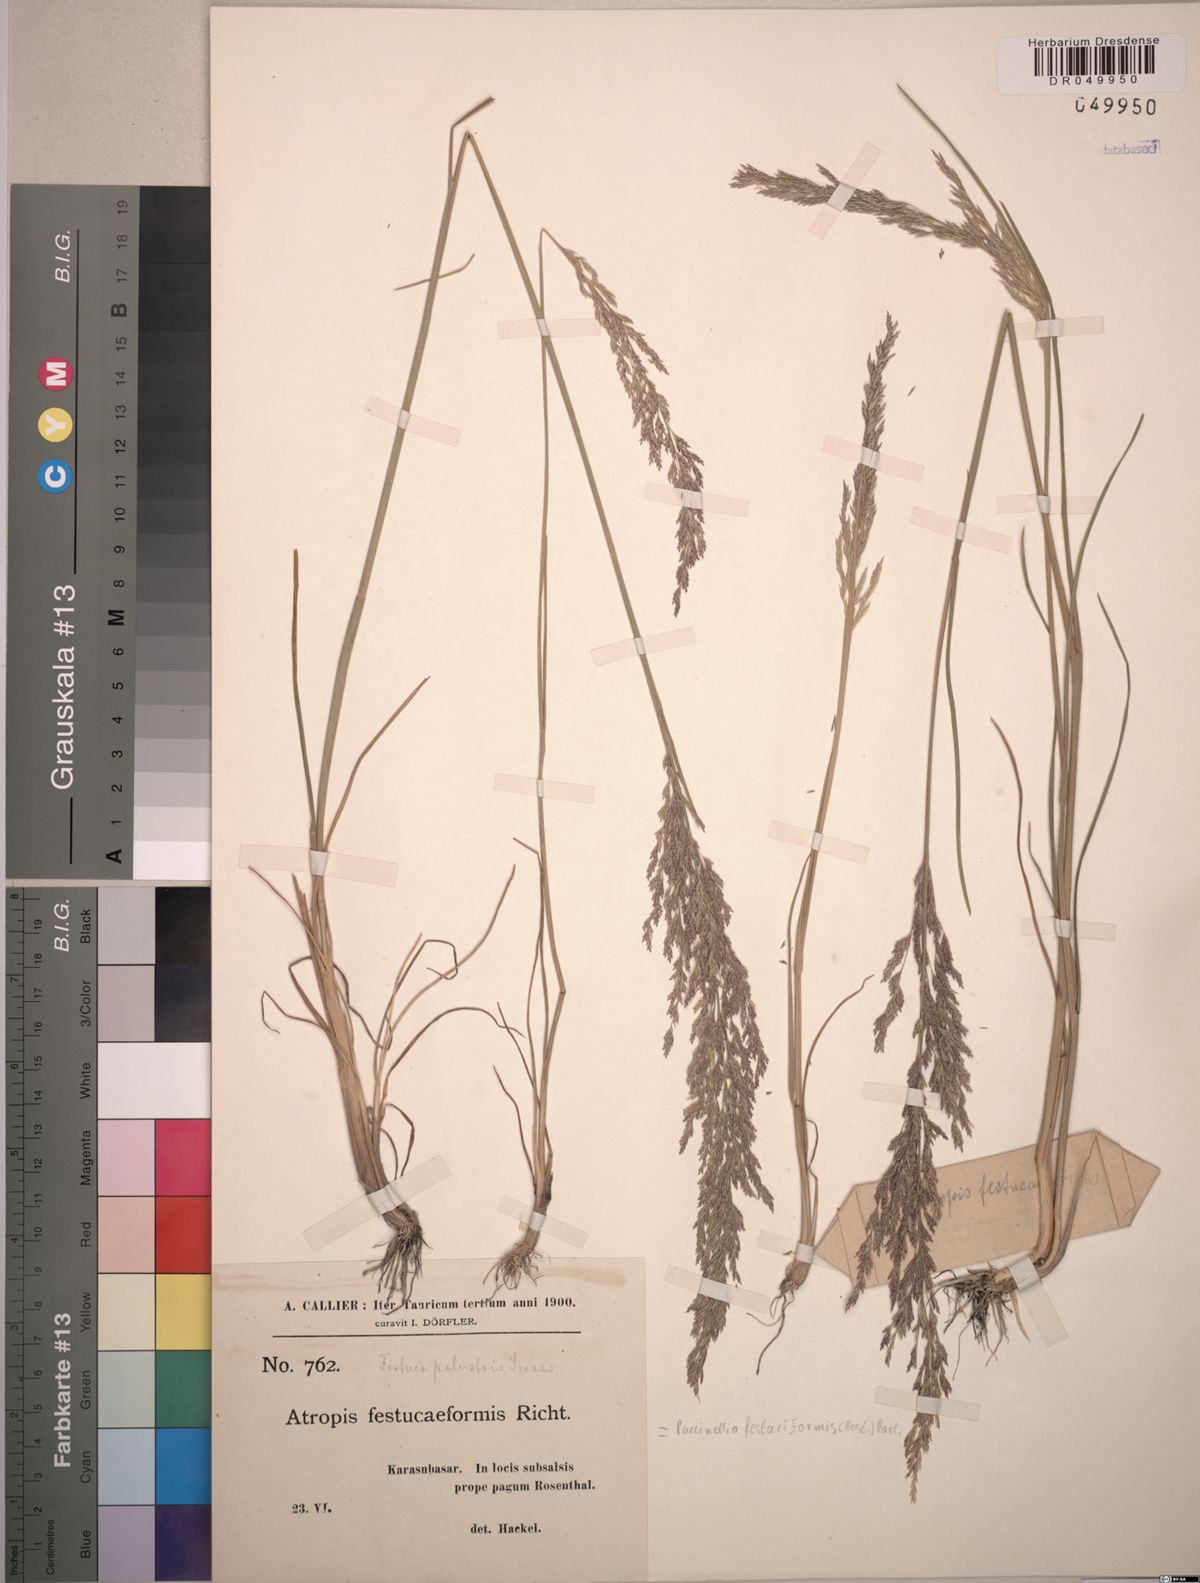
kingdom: Plantae
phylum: Tracheophyta
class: Liliopsida
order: Poales
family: Poaceae
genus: Puccinellia
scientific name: Puccinellia festuciformis
